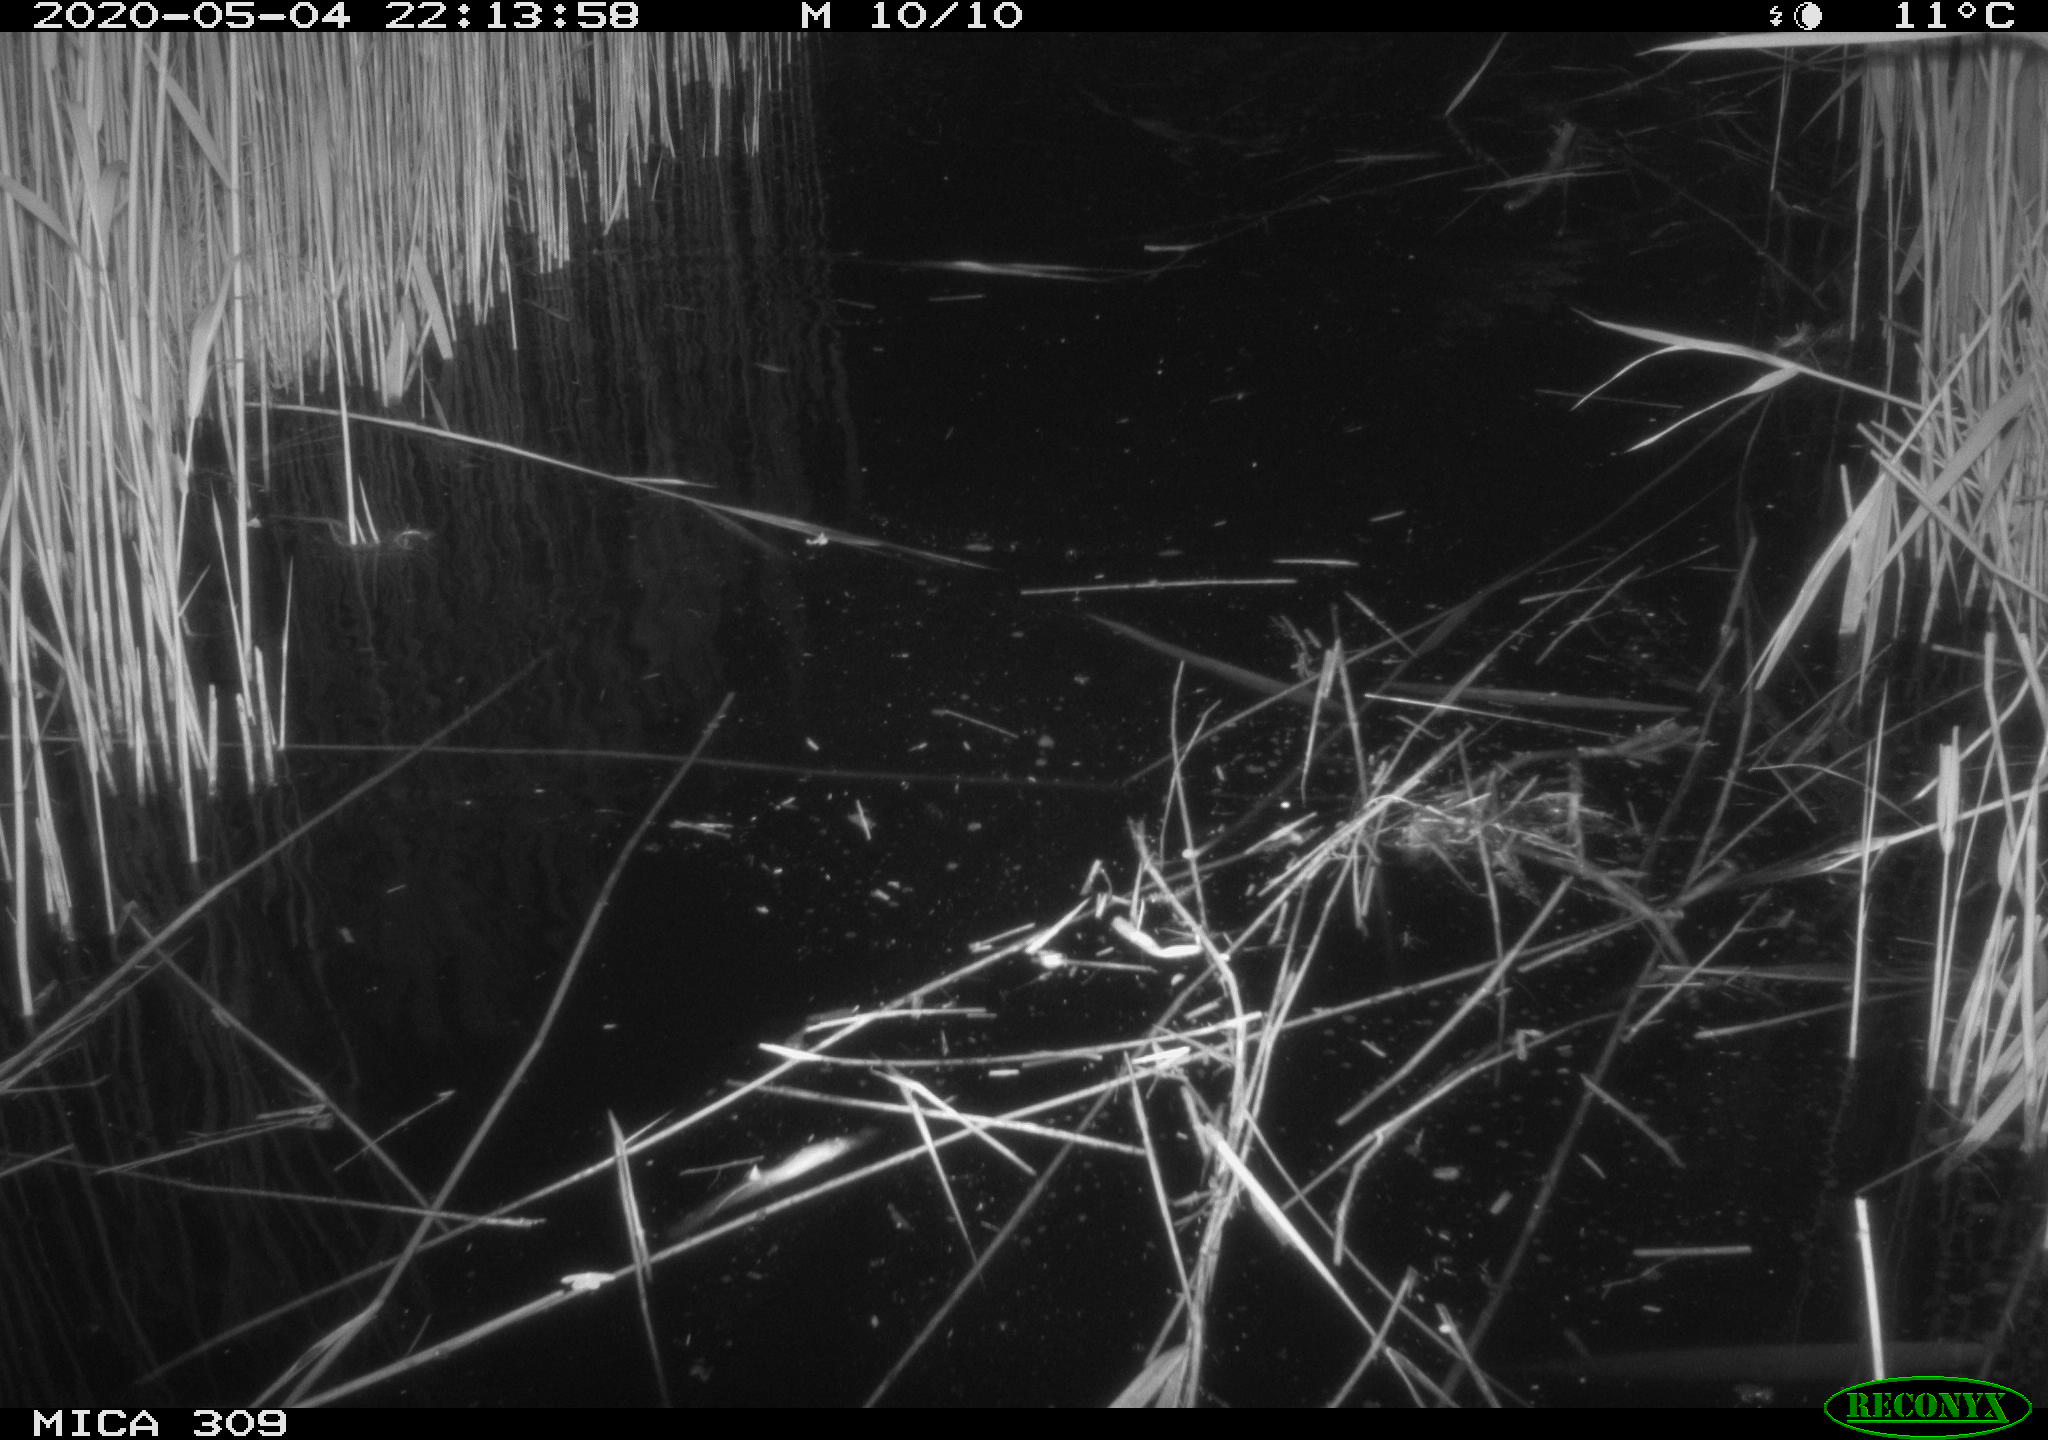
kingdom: Animalia
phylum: Chordata
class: Mammalia
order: Rodentia
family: Muridae
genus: Rattus
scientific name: Rattus norvegicus
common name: Brown rat
